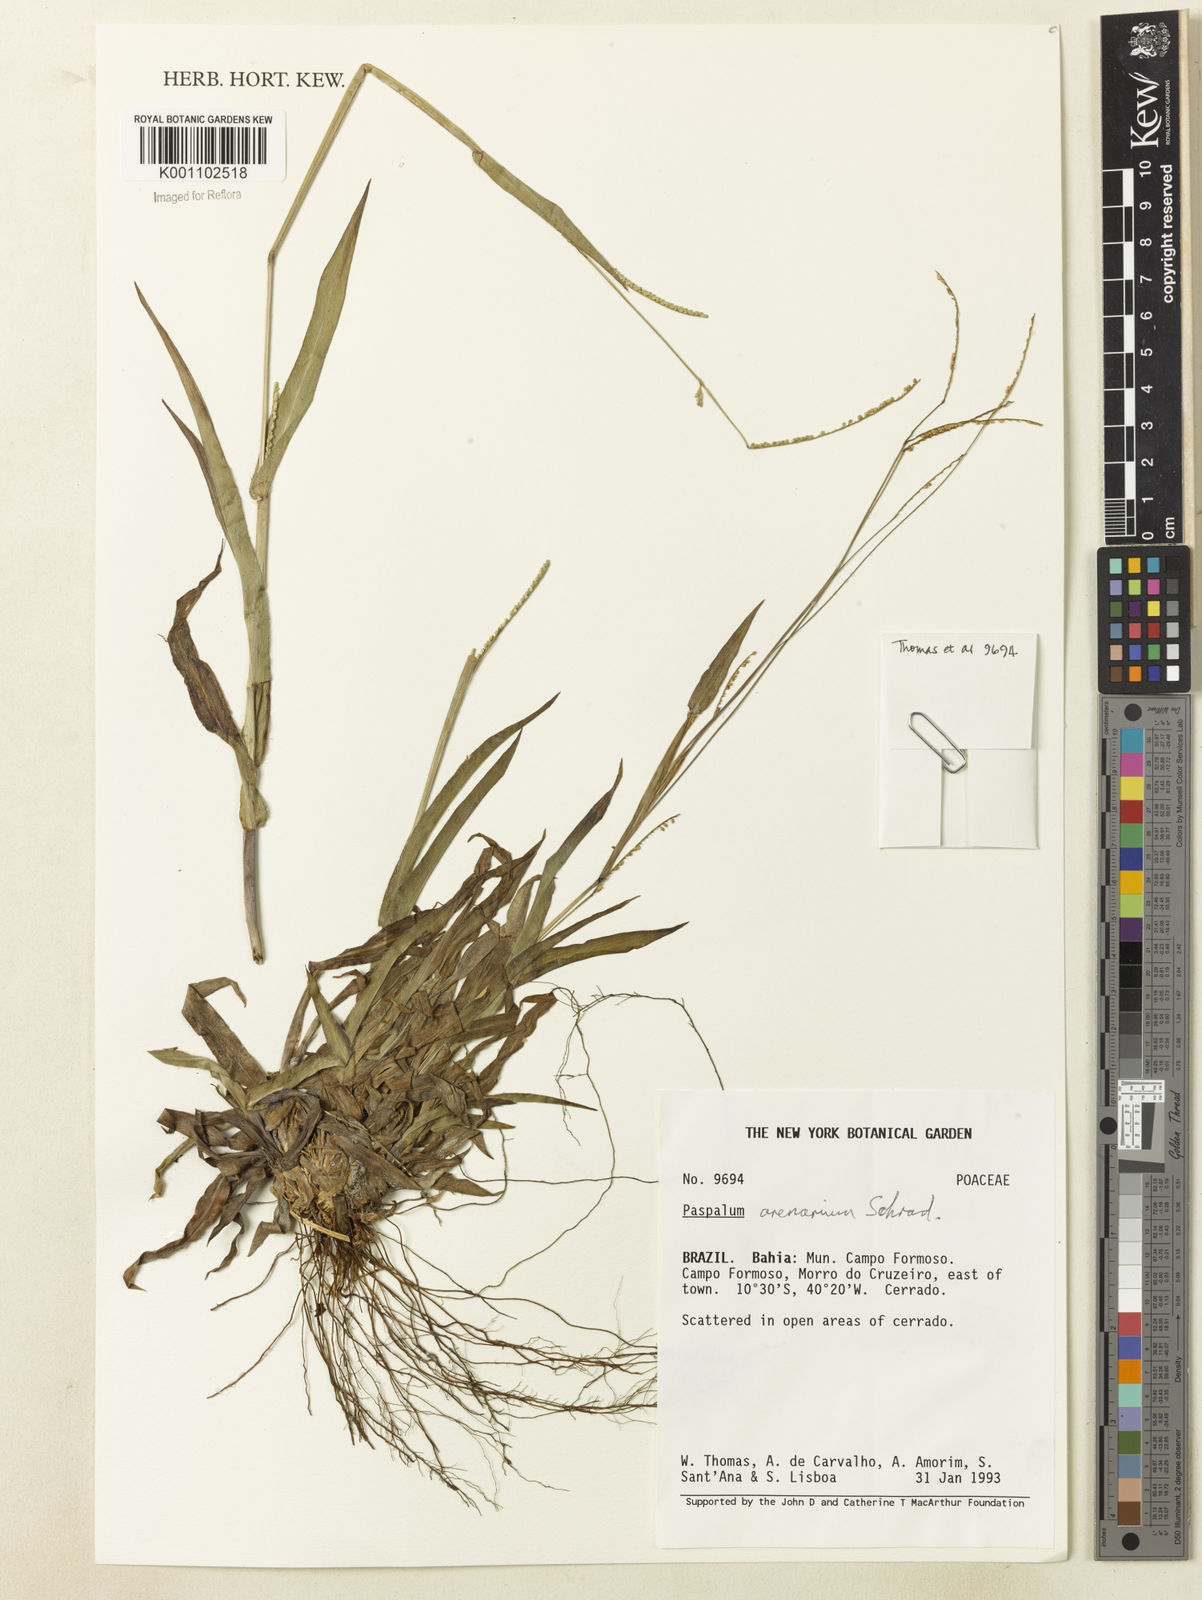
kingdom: Plantae
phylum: Tracheophyta
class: Liliopsida
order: Poales
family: Poaceae
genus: Paspalum
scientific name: Paspalum arenarium
